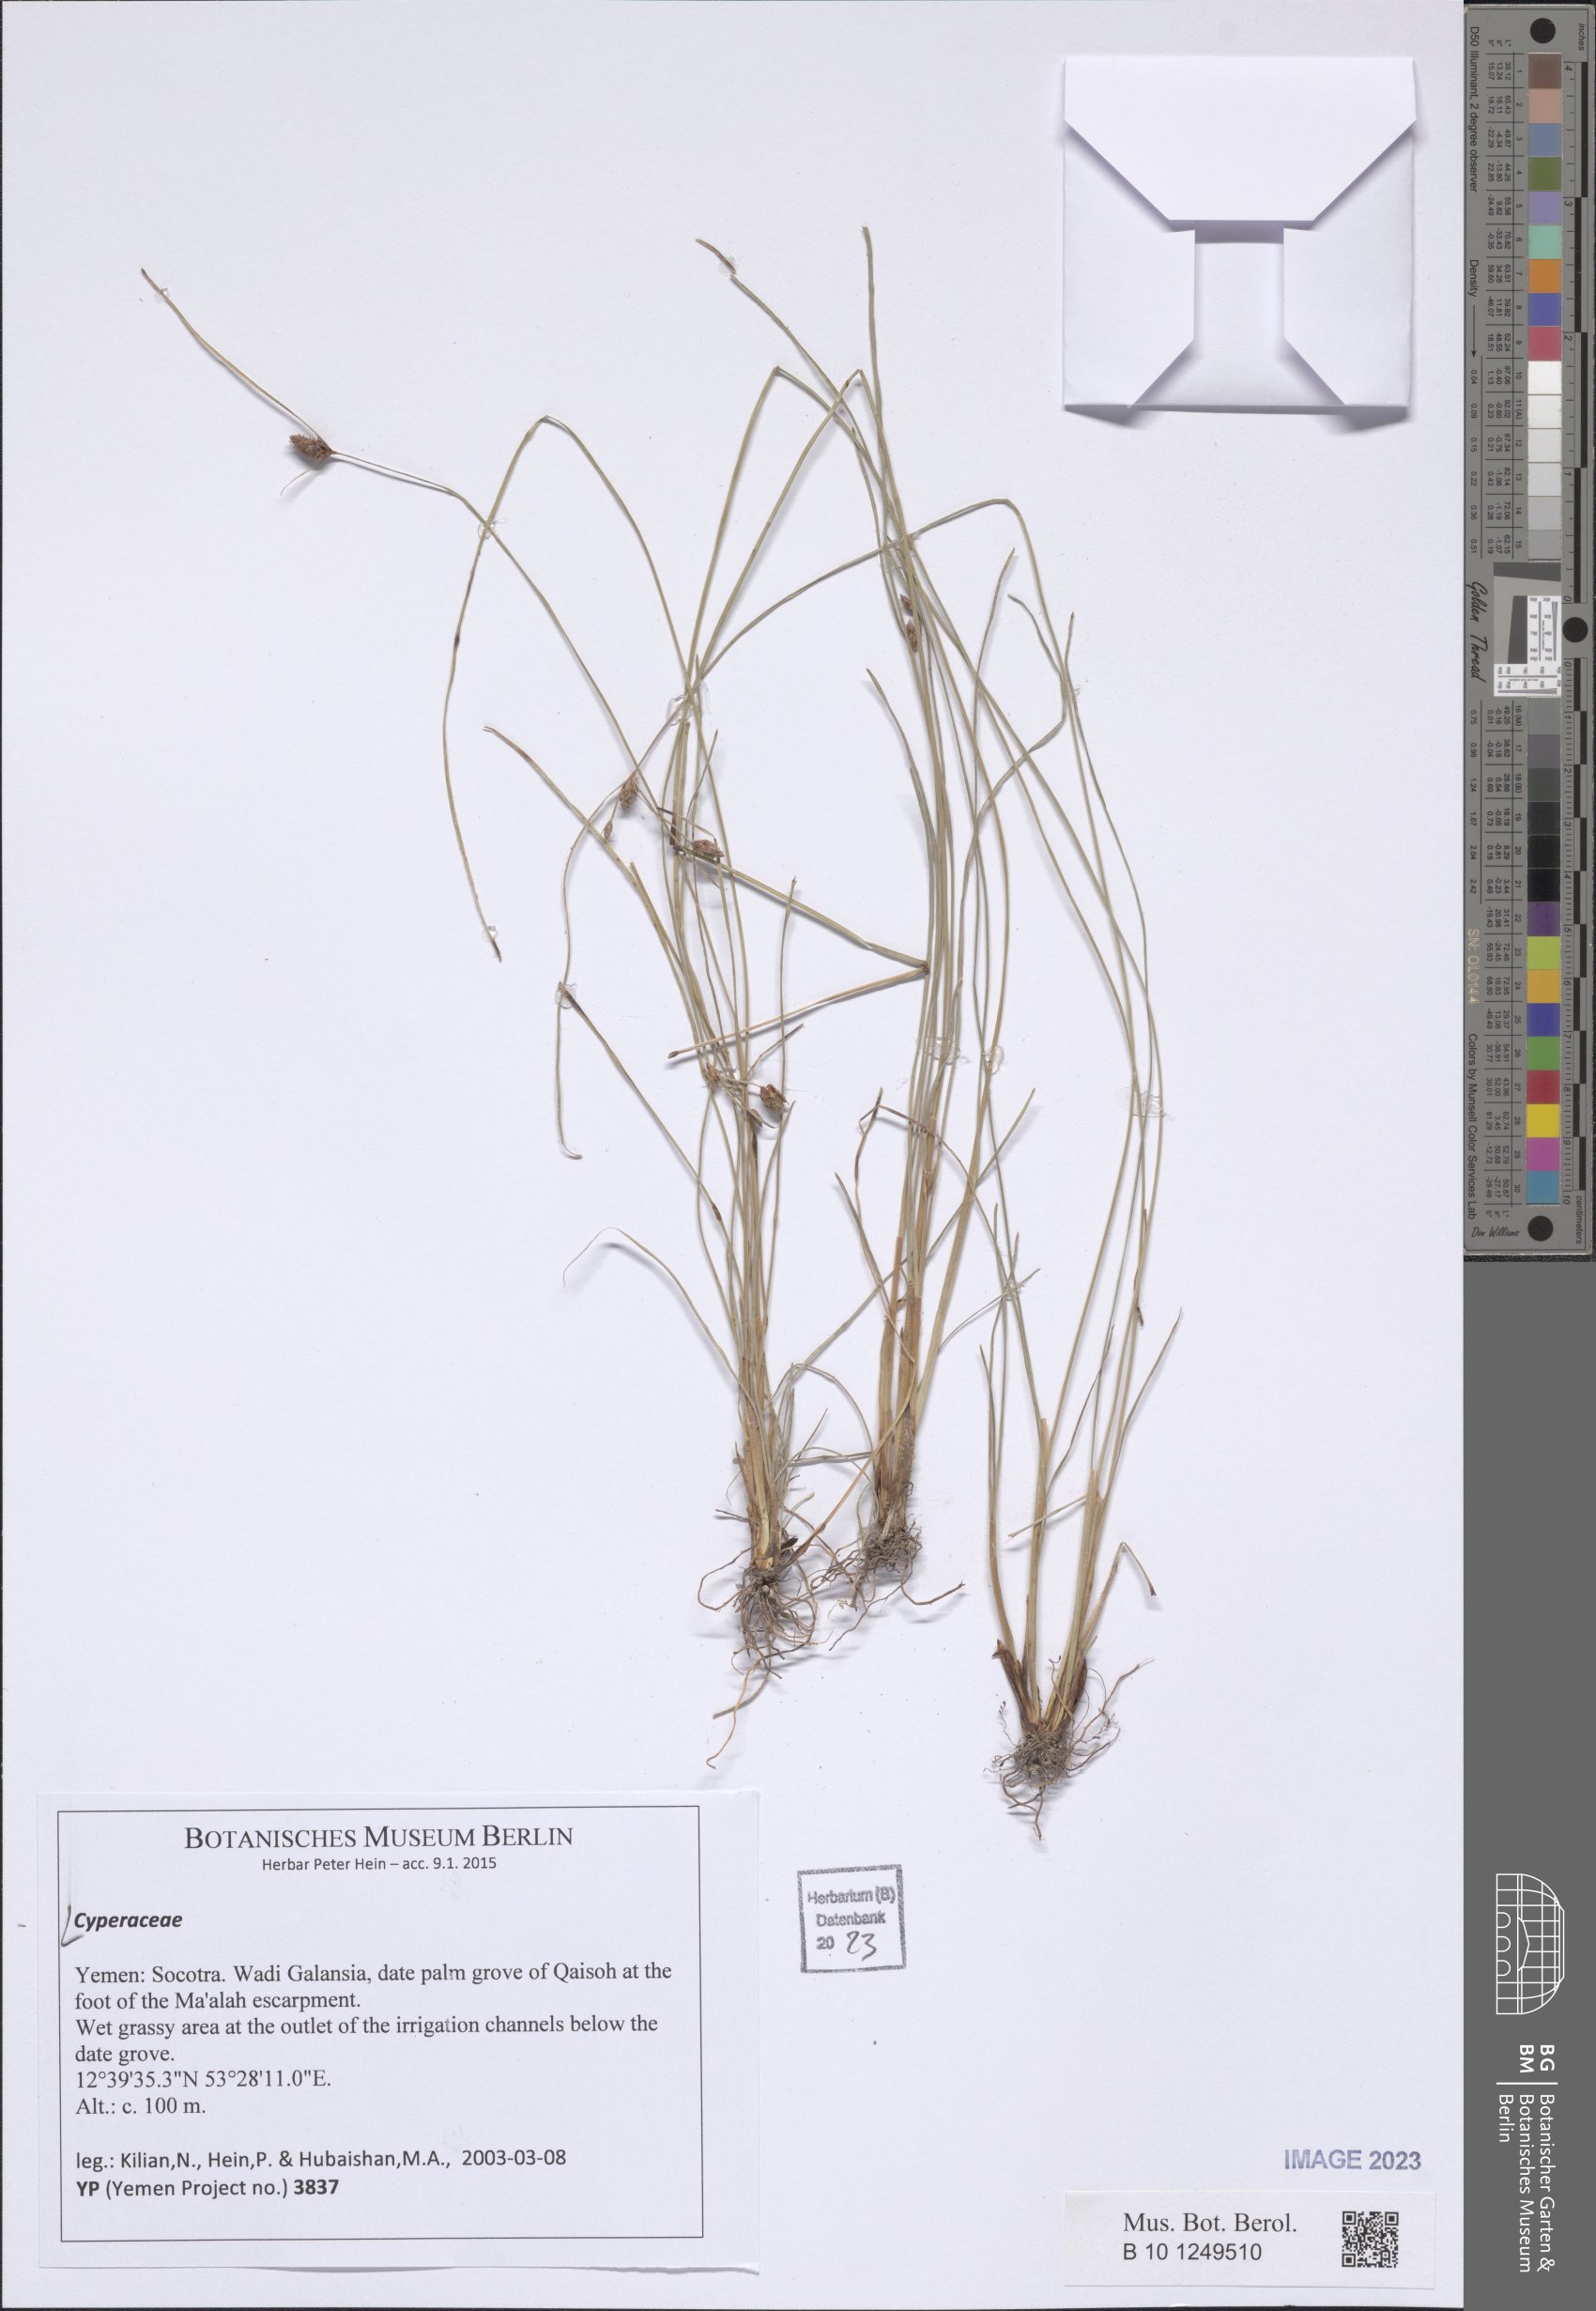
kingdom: Plantae
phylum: Tracheophyta
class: Liliopsida
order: Poales
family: Cyperaceae
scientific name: Cyperaceae
